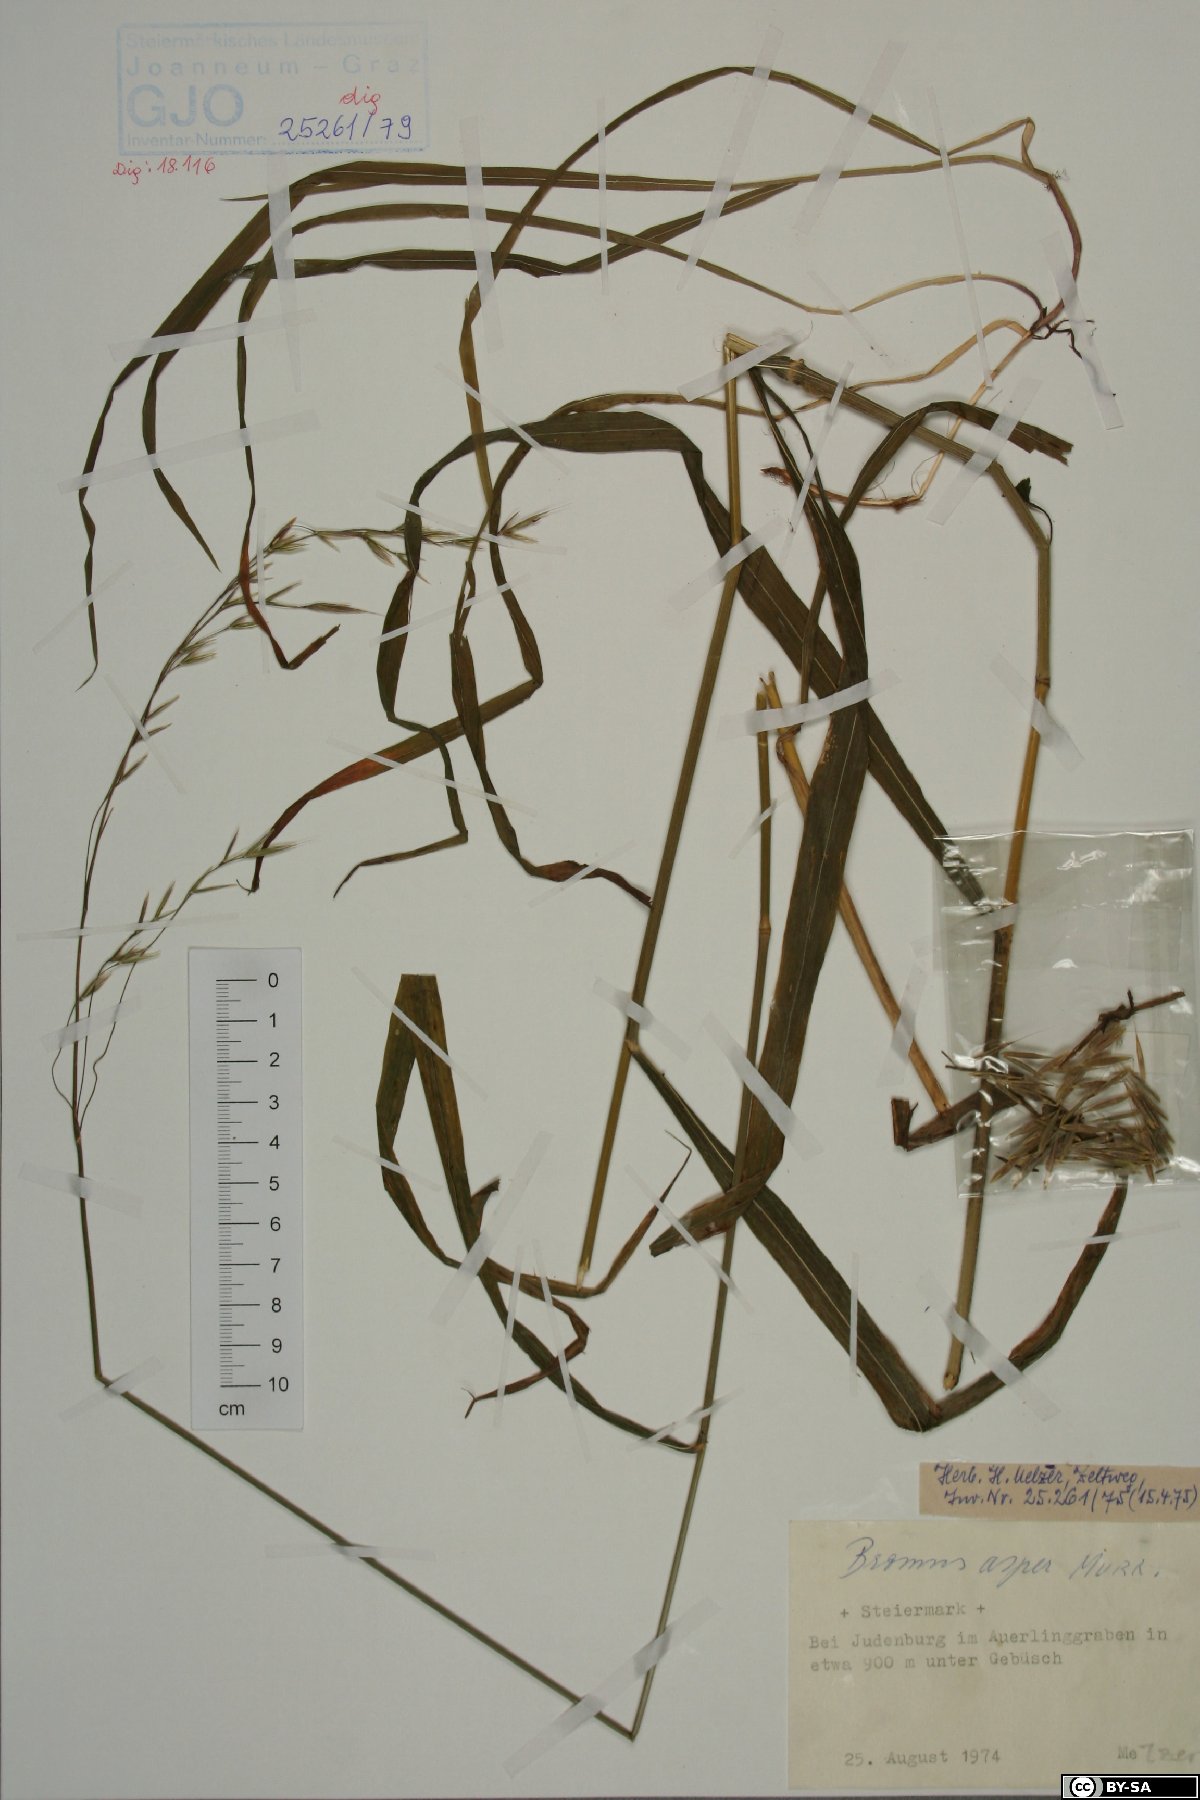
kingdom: Plantae
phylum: Tracheophyta
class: Liliopsida
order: Poales
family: Poaceae
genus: Bromus
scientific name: Bromus ramosus
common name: Hairy brome
